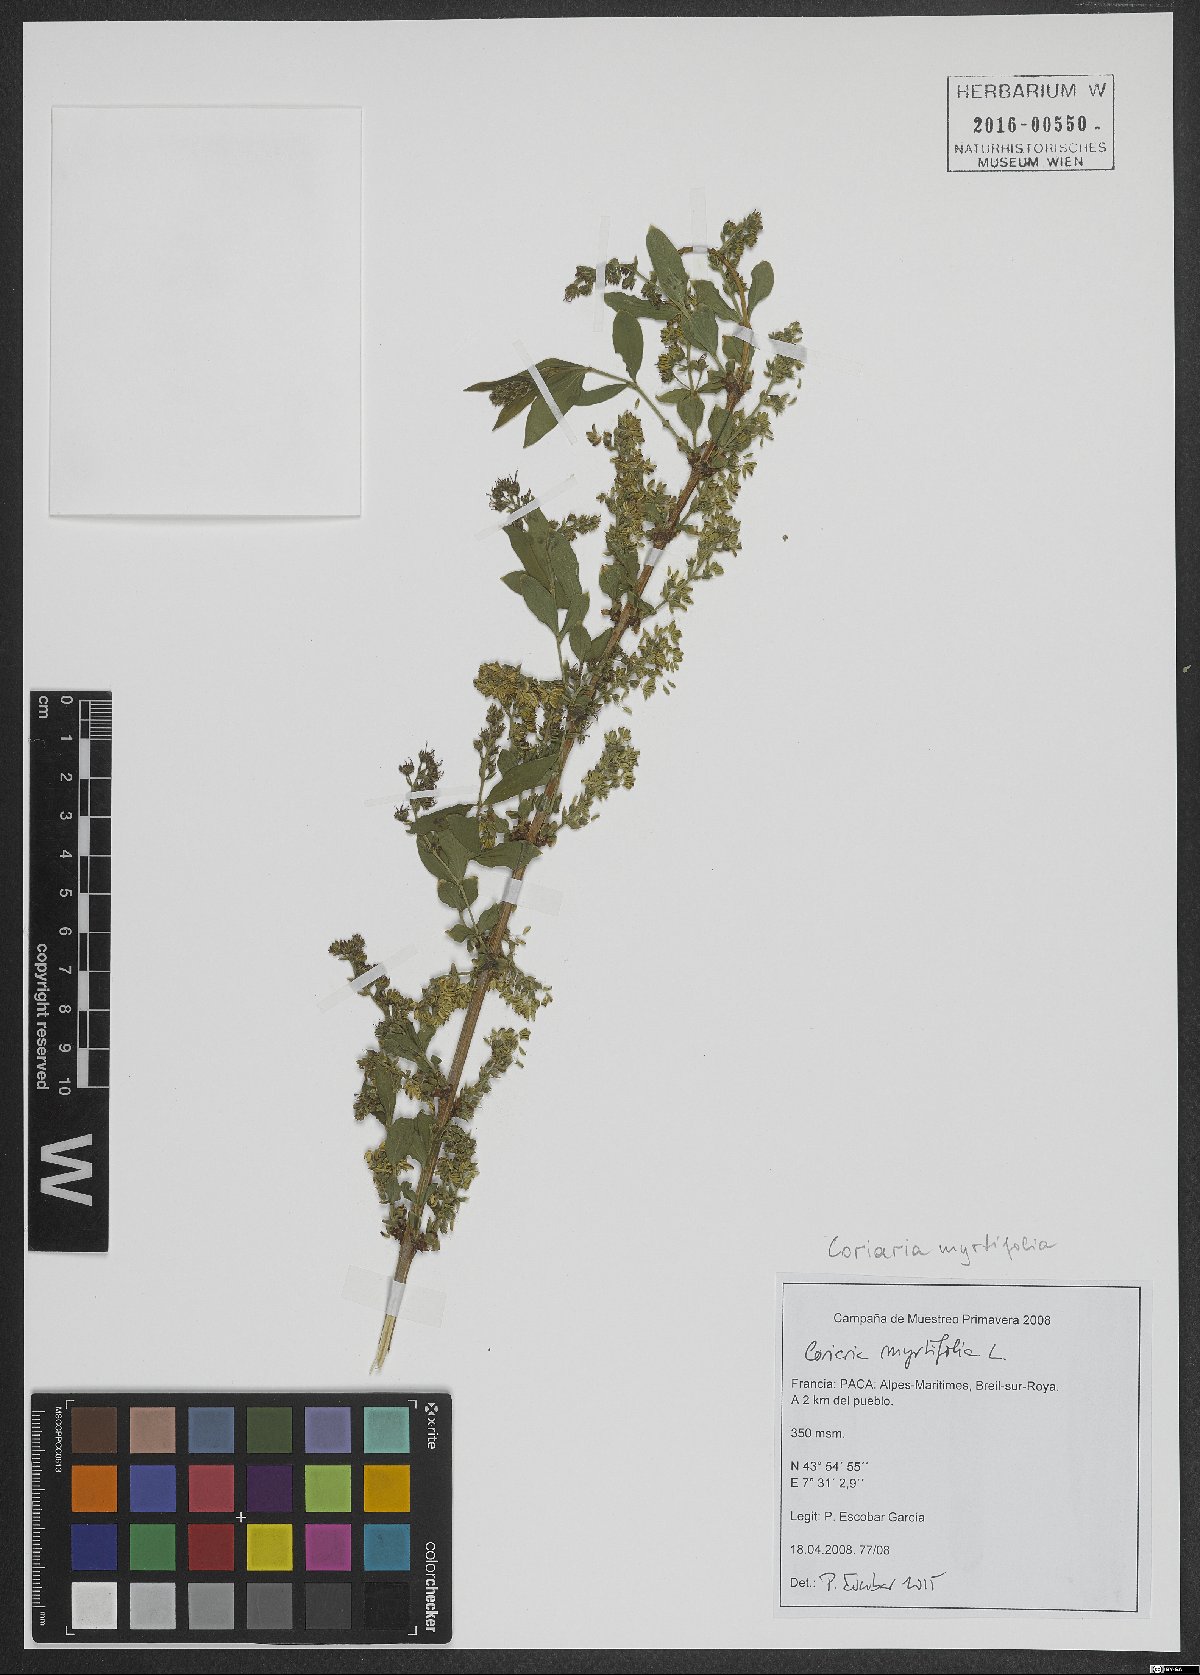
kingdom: Plantae
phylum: Tracheophyta
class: Magnoliopsida
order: Cucurbitales
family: Coriariaceae
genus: Coriaria
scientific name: Coriaria myrtifolia
